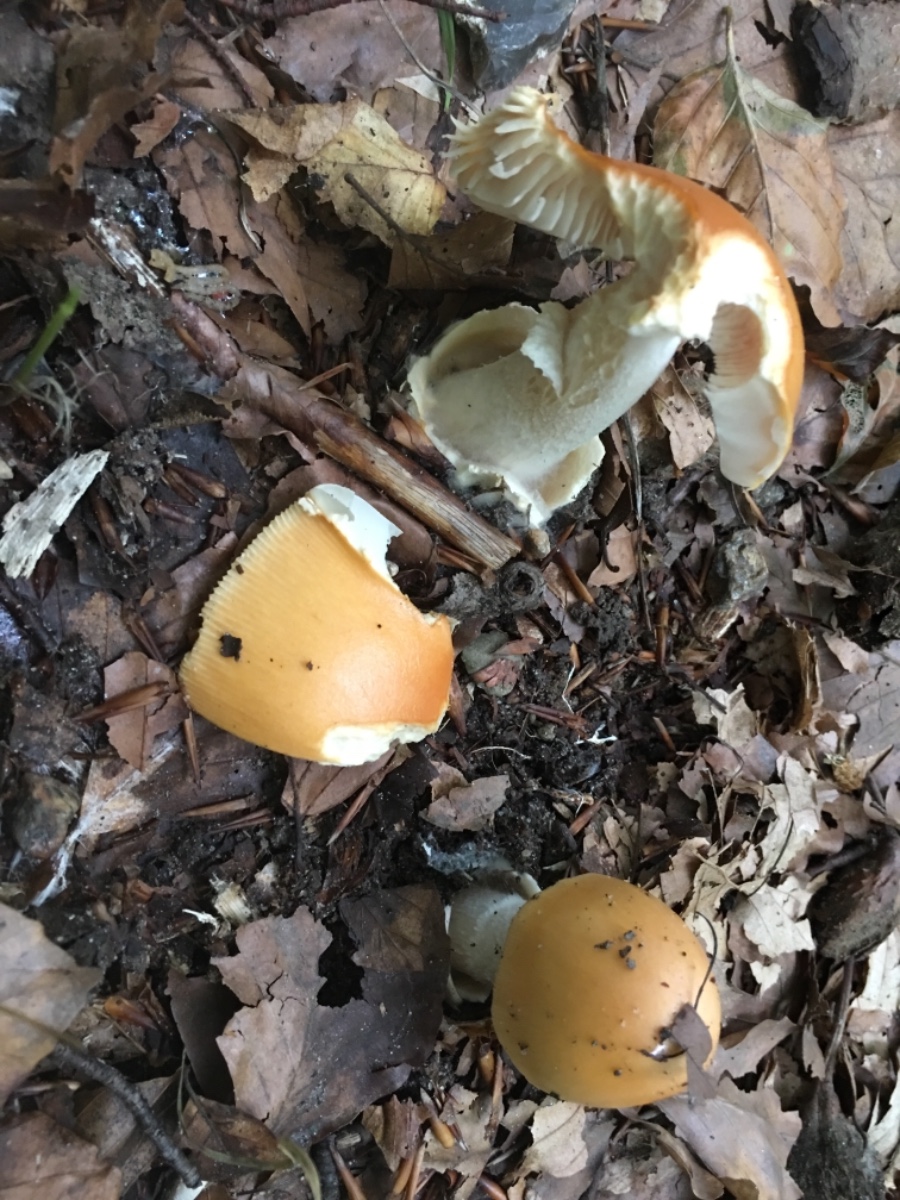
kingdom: Fungi
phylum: Basidiomycota
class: Agaricomycetes
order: Agaricales
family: Amanitaceae
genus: Amanita
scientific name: Amanita fulva
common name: brun kam-fluesvamp
